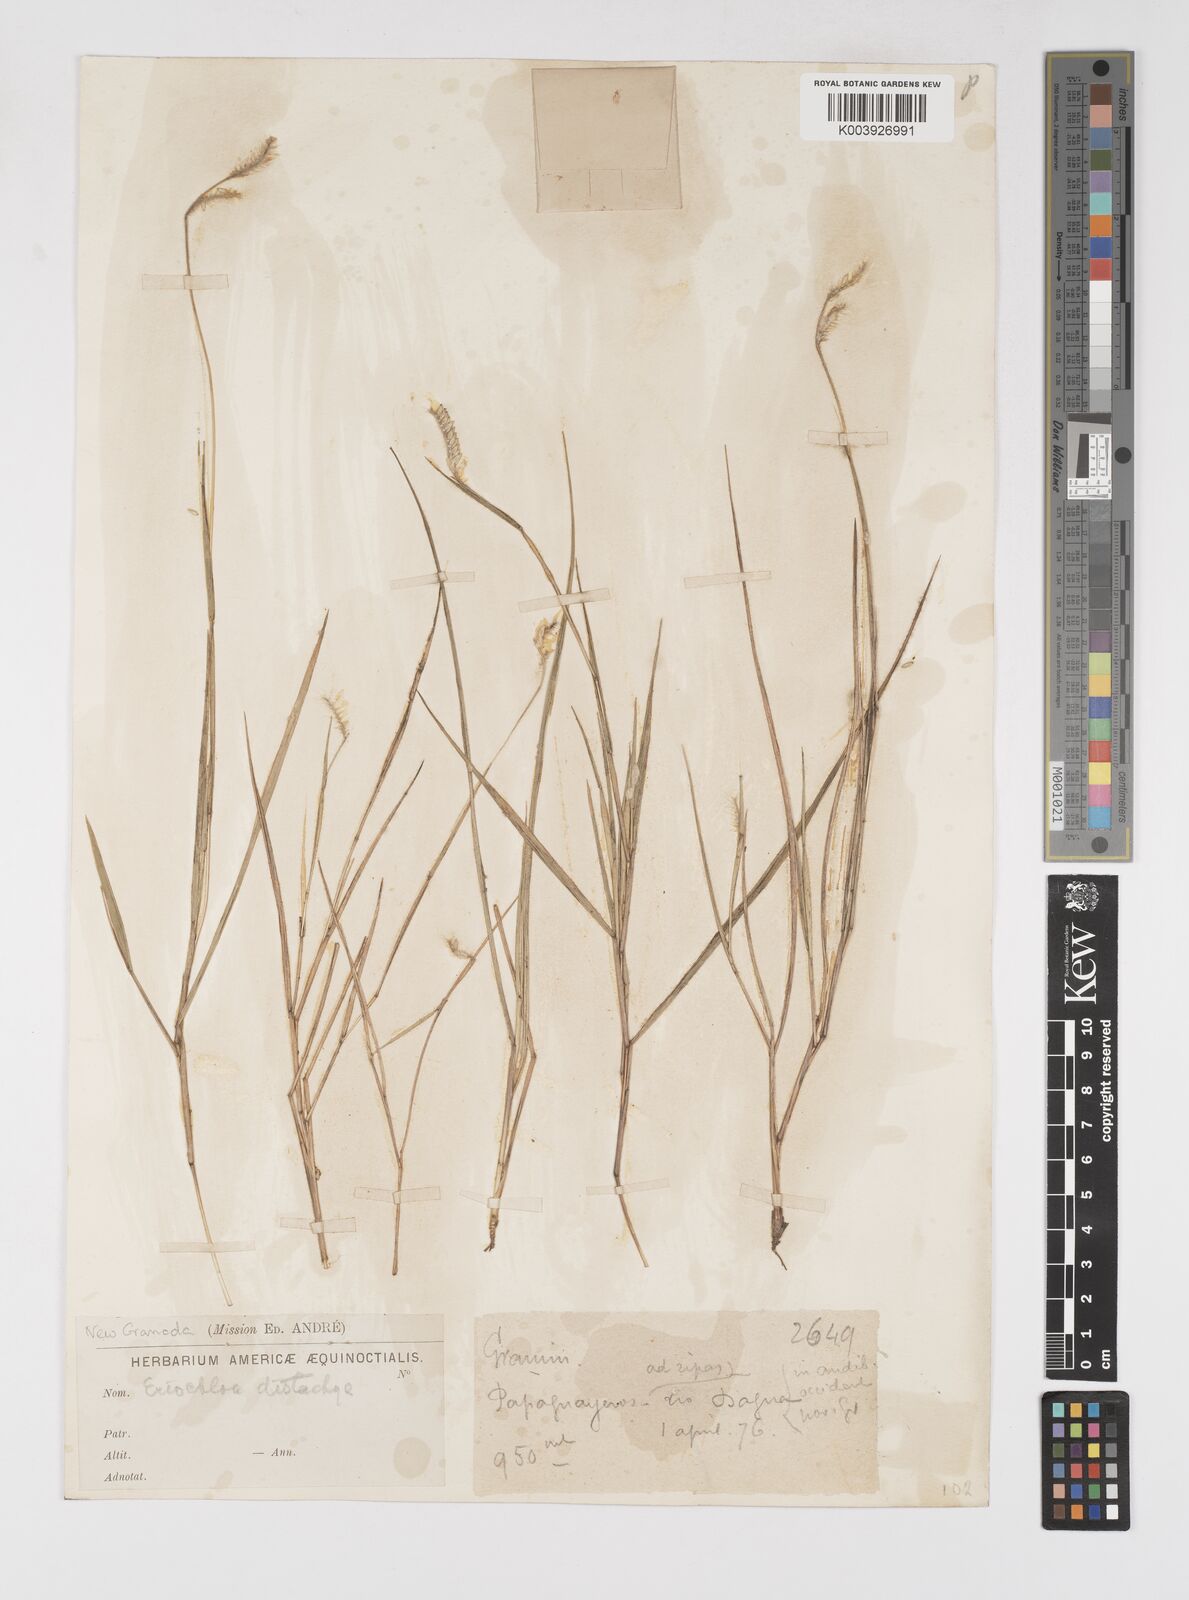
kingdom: Plantae
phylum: Tracheophyta
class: Liliopsida
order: Poales
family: Poaceae
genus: Eriochloa
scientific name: Eriochloa distachya
